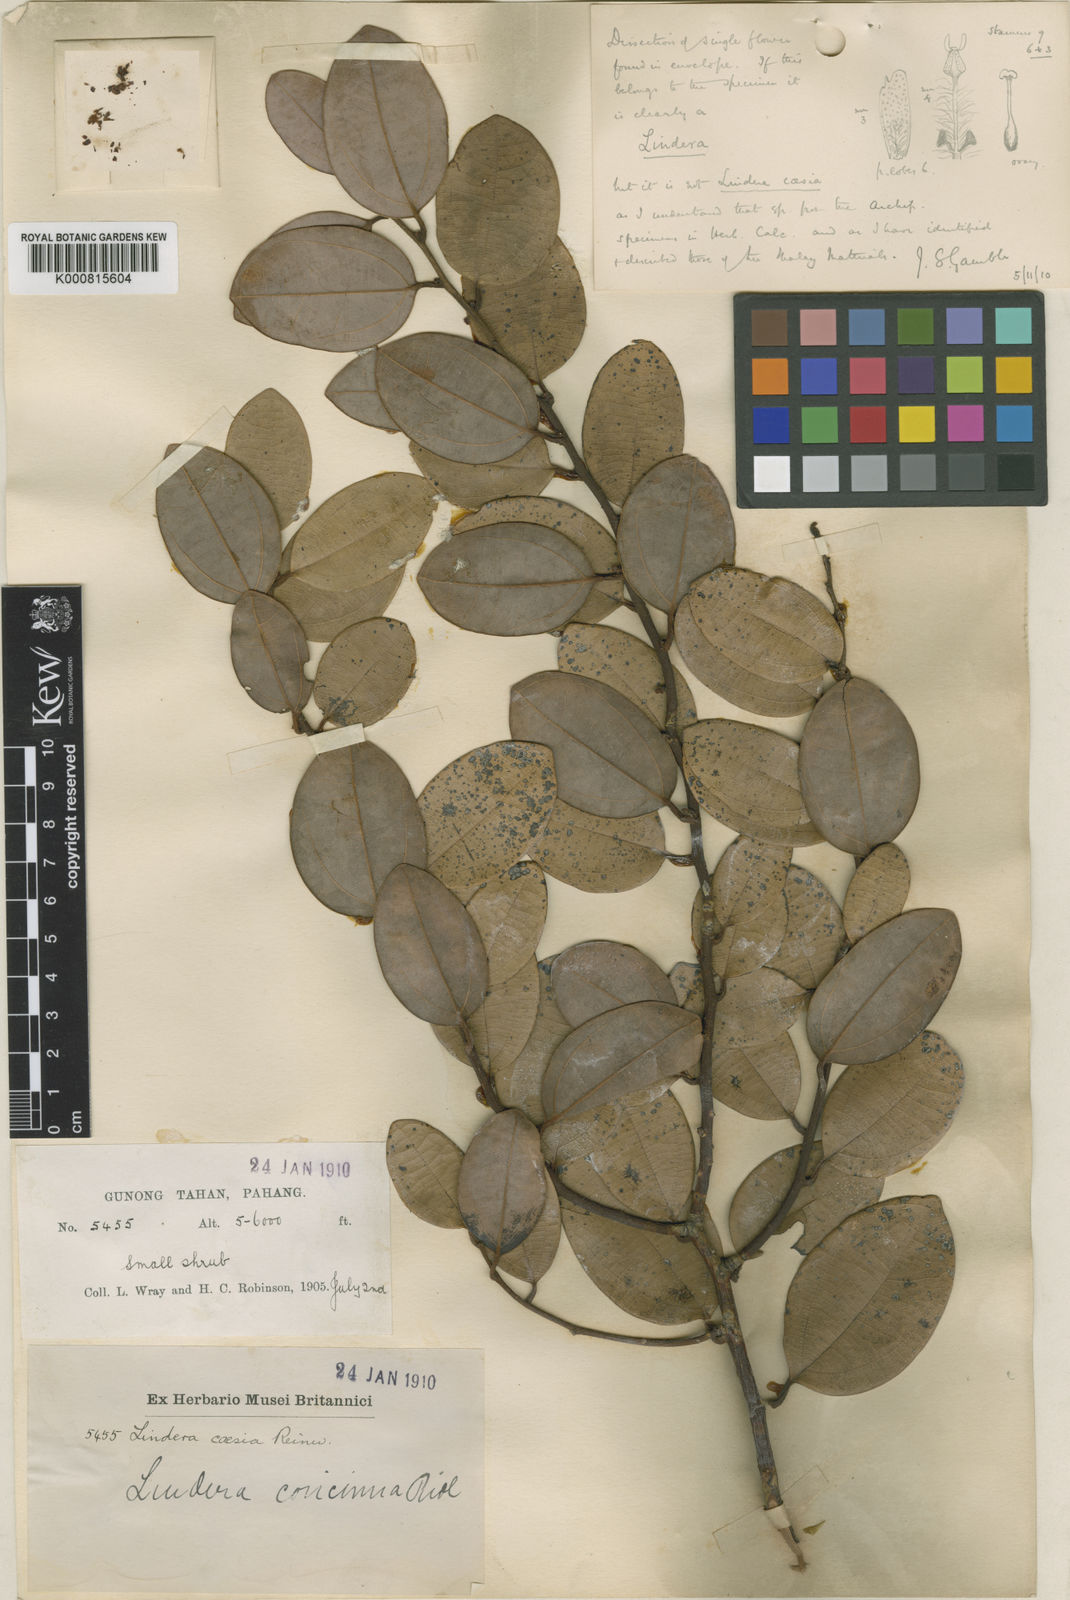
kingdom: Plantae
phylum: Tracheophyta
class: Magnoliopsida
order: Laurales
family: Lauraceae
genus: Lindera
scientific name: Lindera concinna
